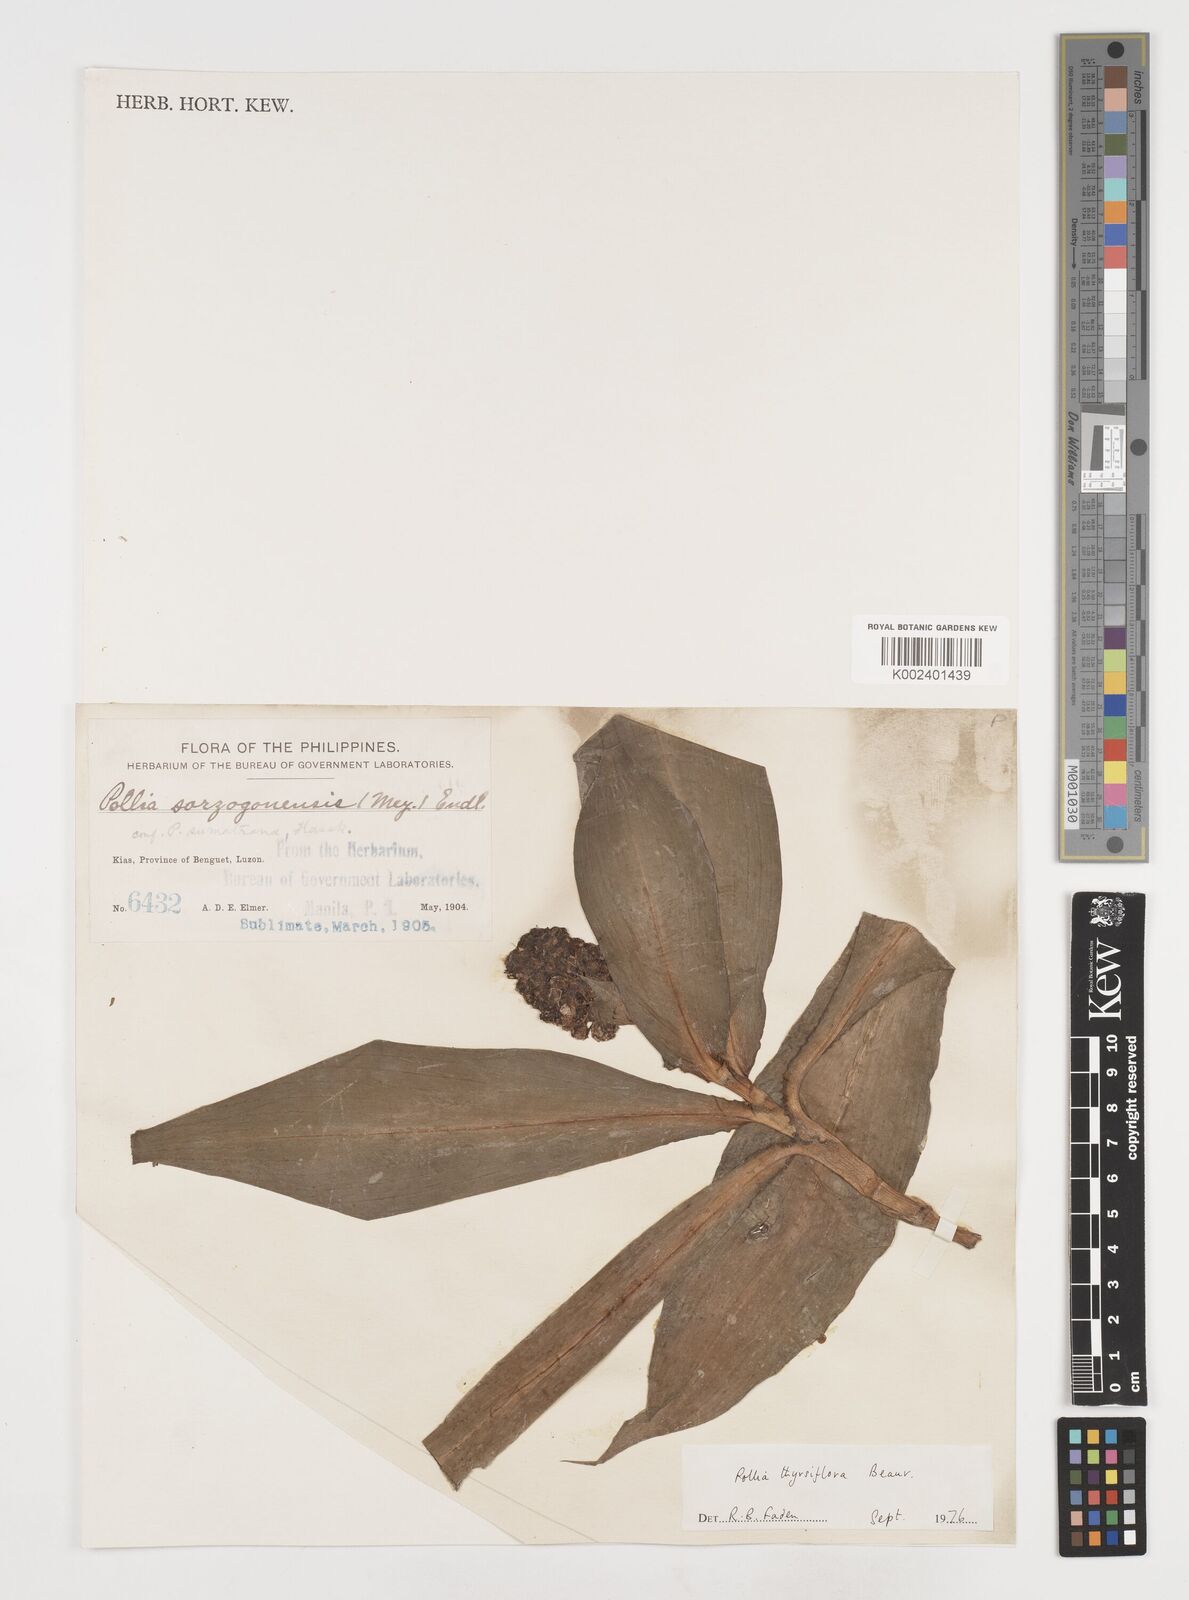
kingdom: Plantae
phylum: Tracheophyta
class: Liliopsida
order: Commelinales
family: Commelinaceae
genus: Pollia
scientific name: Pollia thyrsiflora
